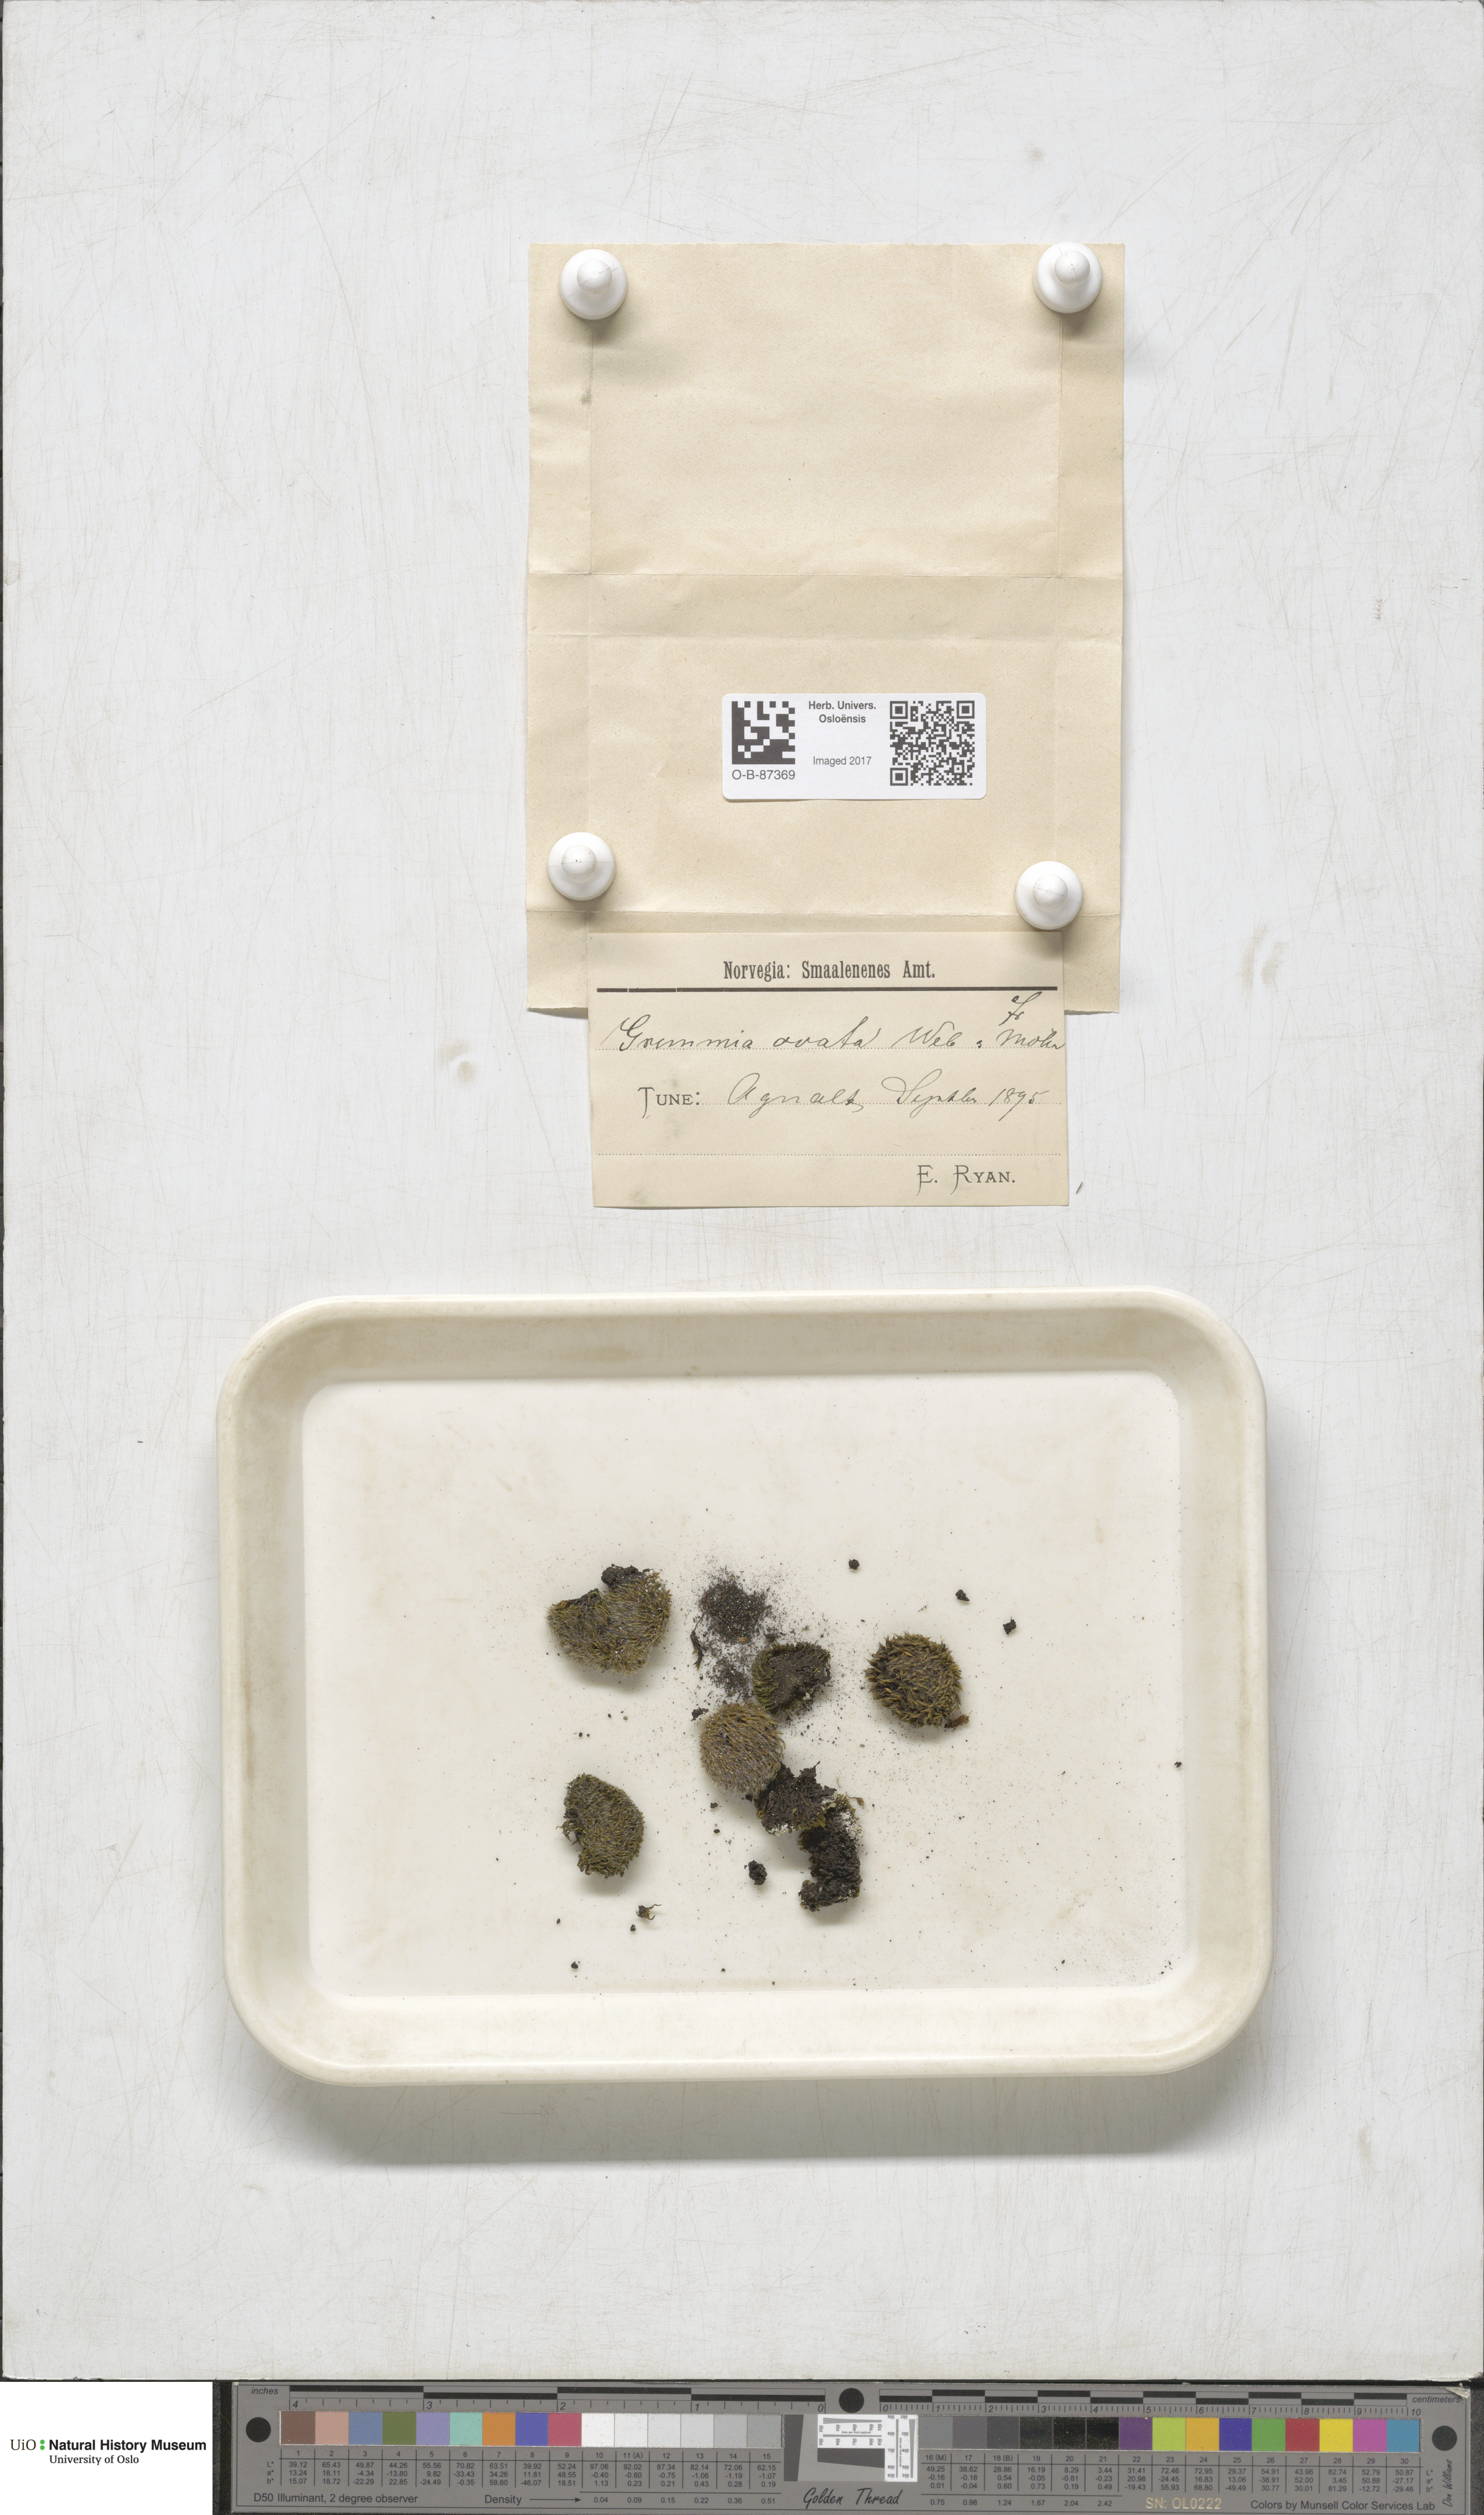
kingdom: Plantae
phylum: Bryophyta
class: Bryopsida
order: Grimmiales
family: Grimmiaceae
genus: Grimmia
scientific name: Grimmia ovalis
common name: Oval grimmia
